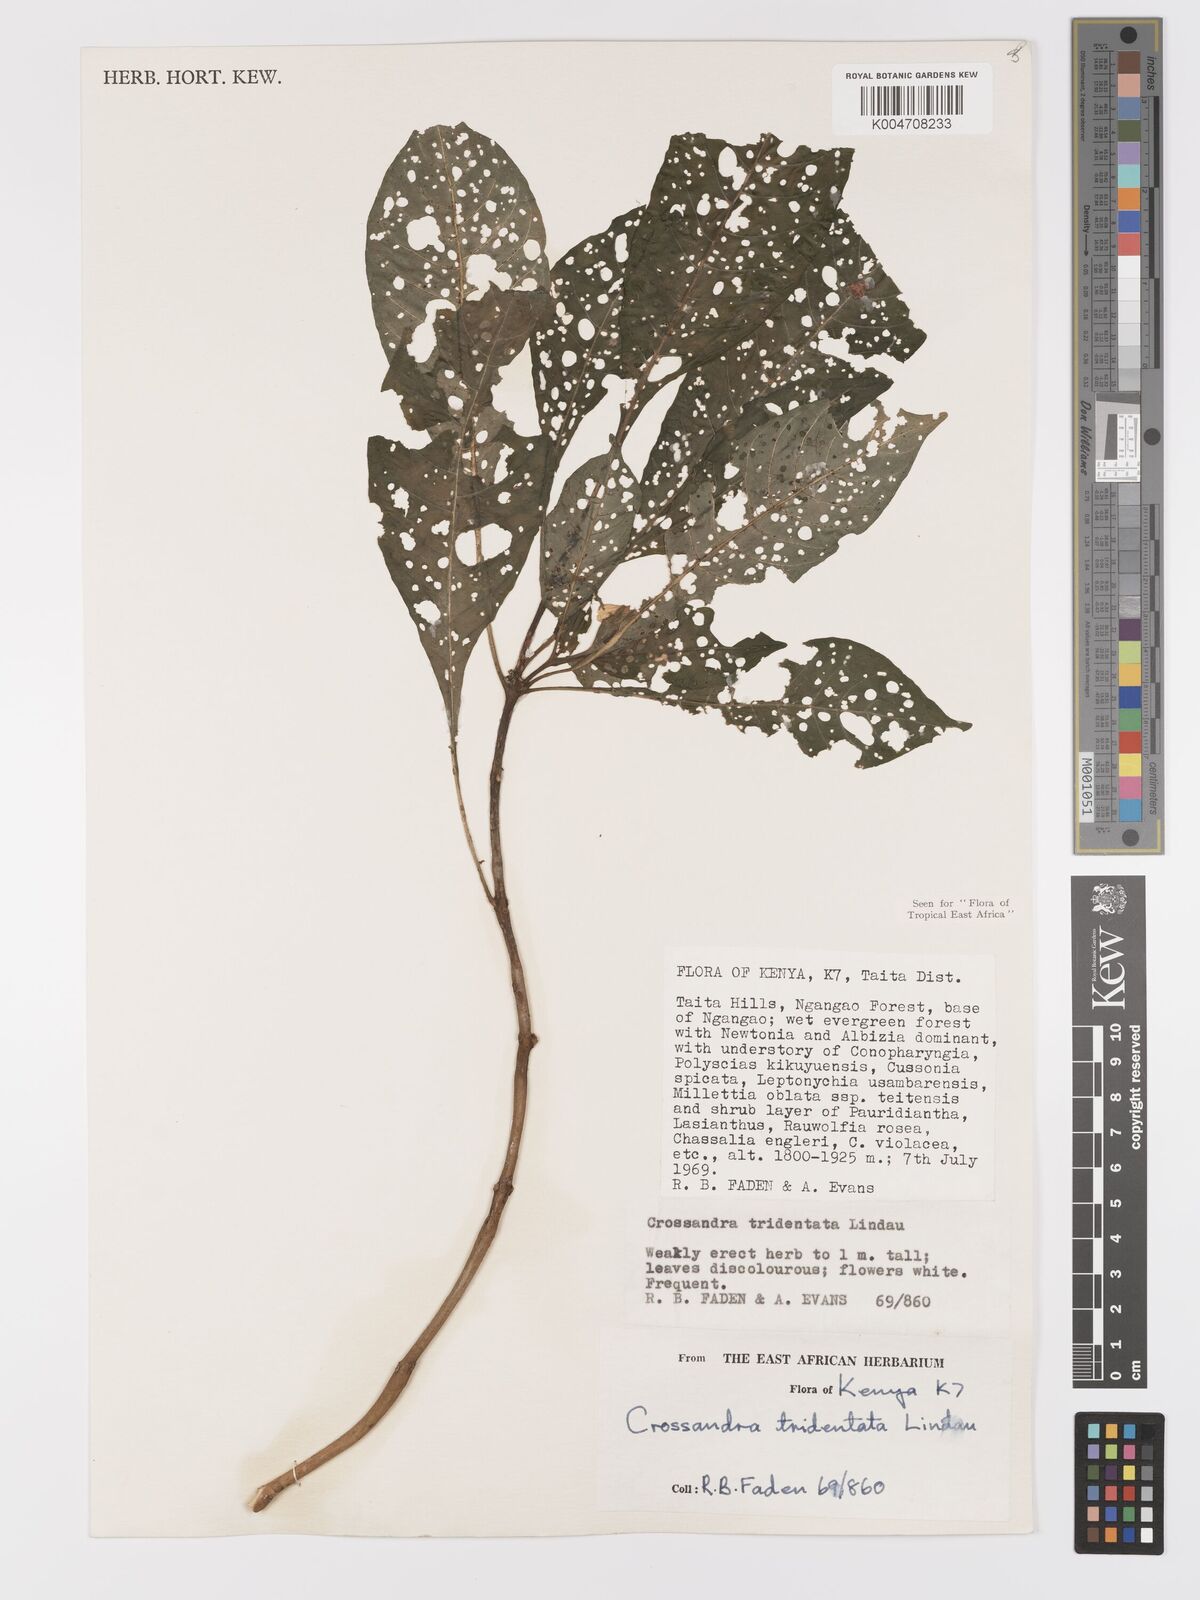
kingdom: Plantae
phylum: Tracheophyta
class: Magnoliopsida
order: Lamiales
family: Acanthaceae
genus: Crossandra
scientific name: Crossandra tridentata
